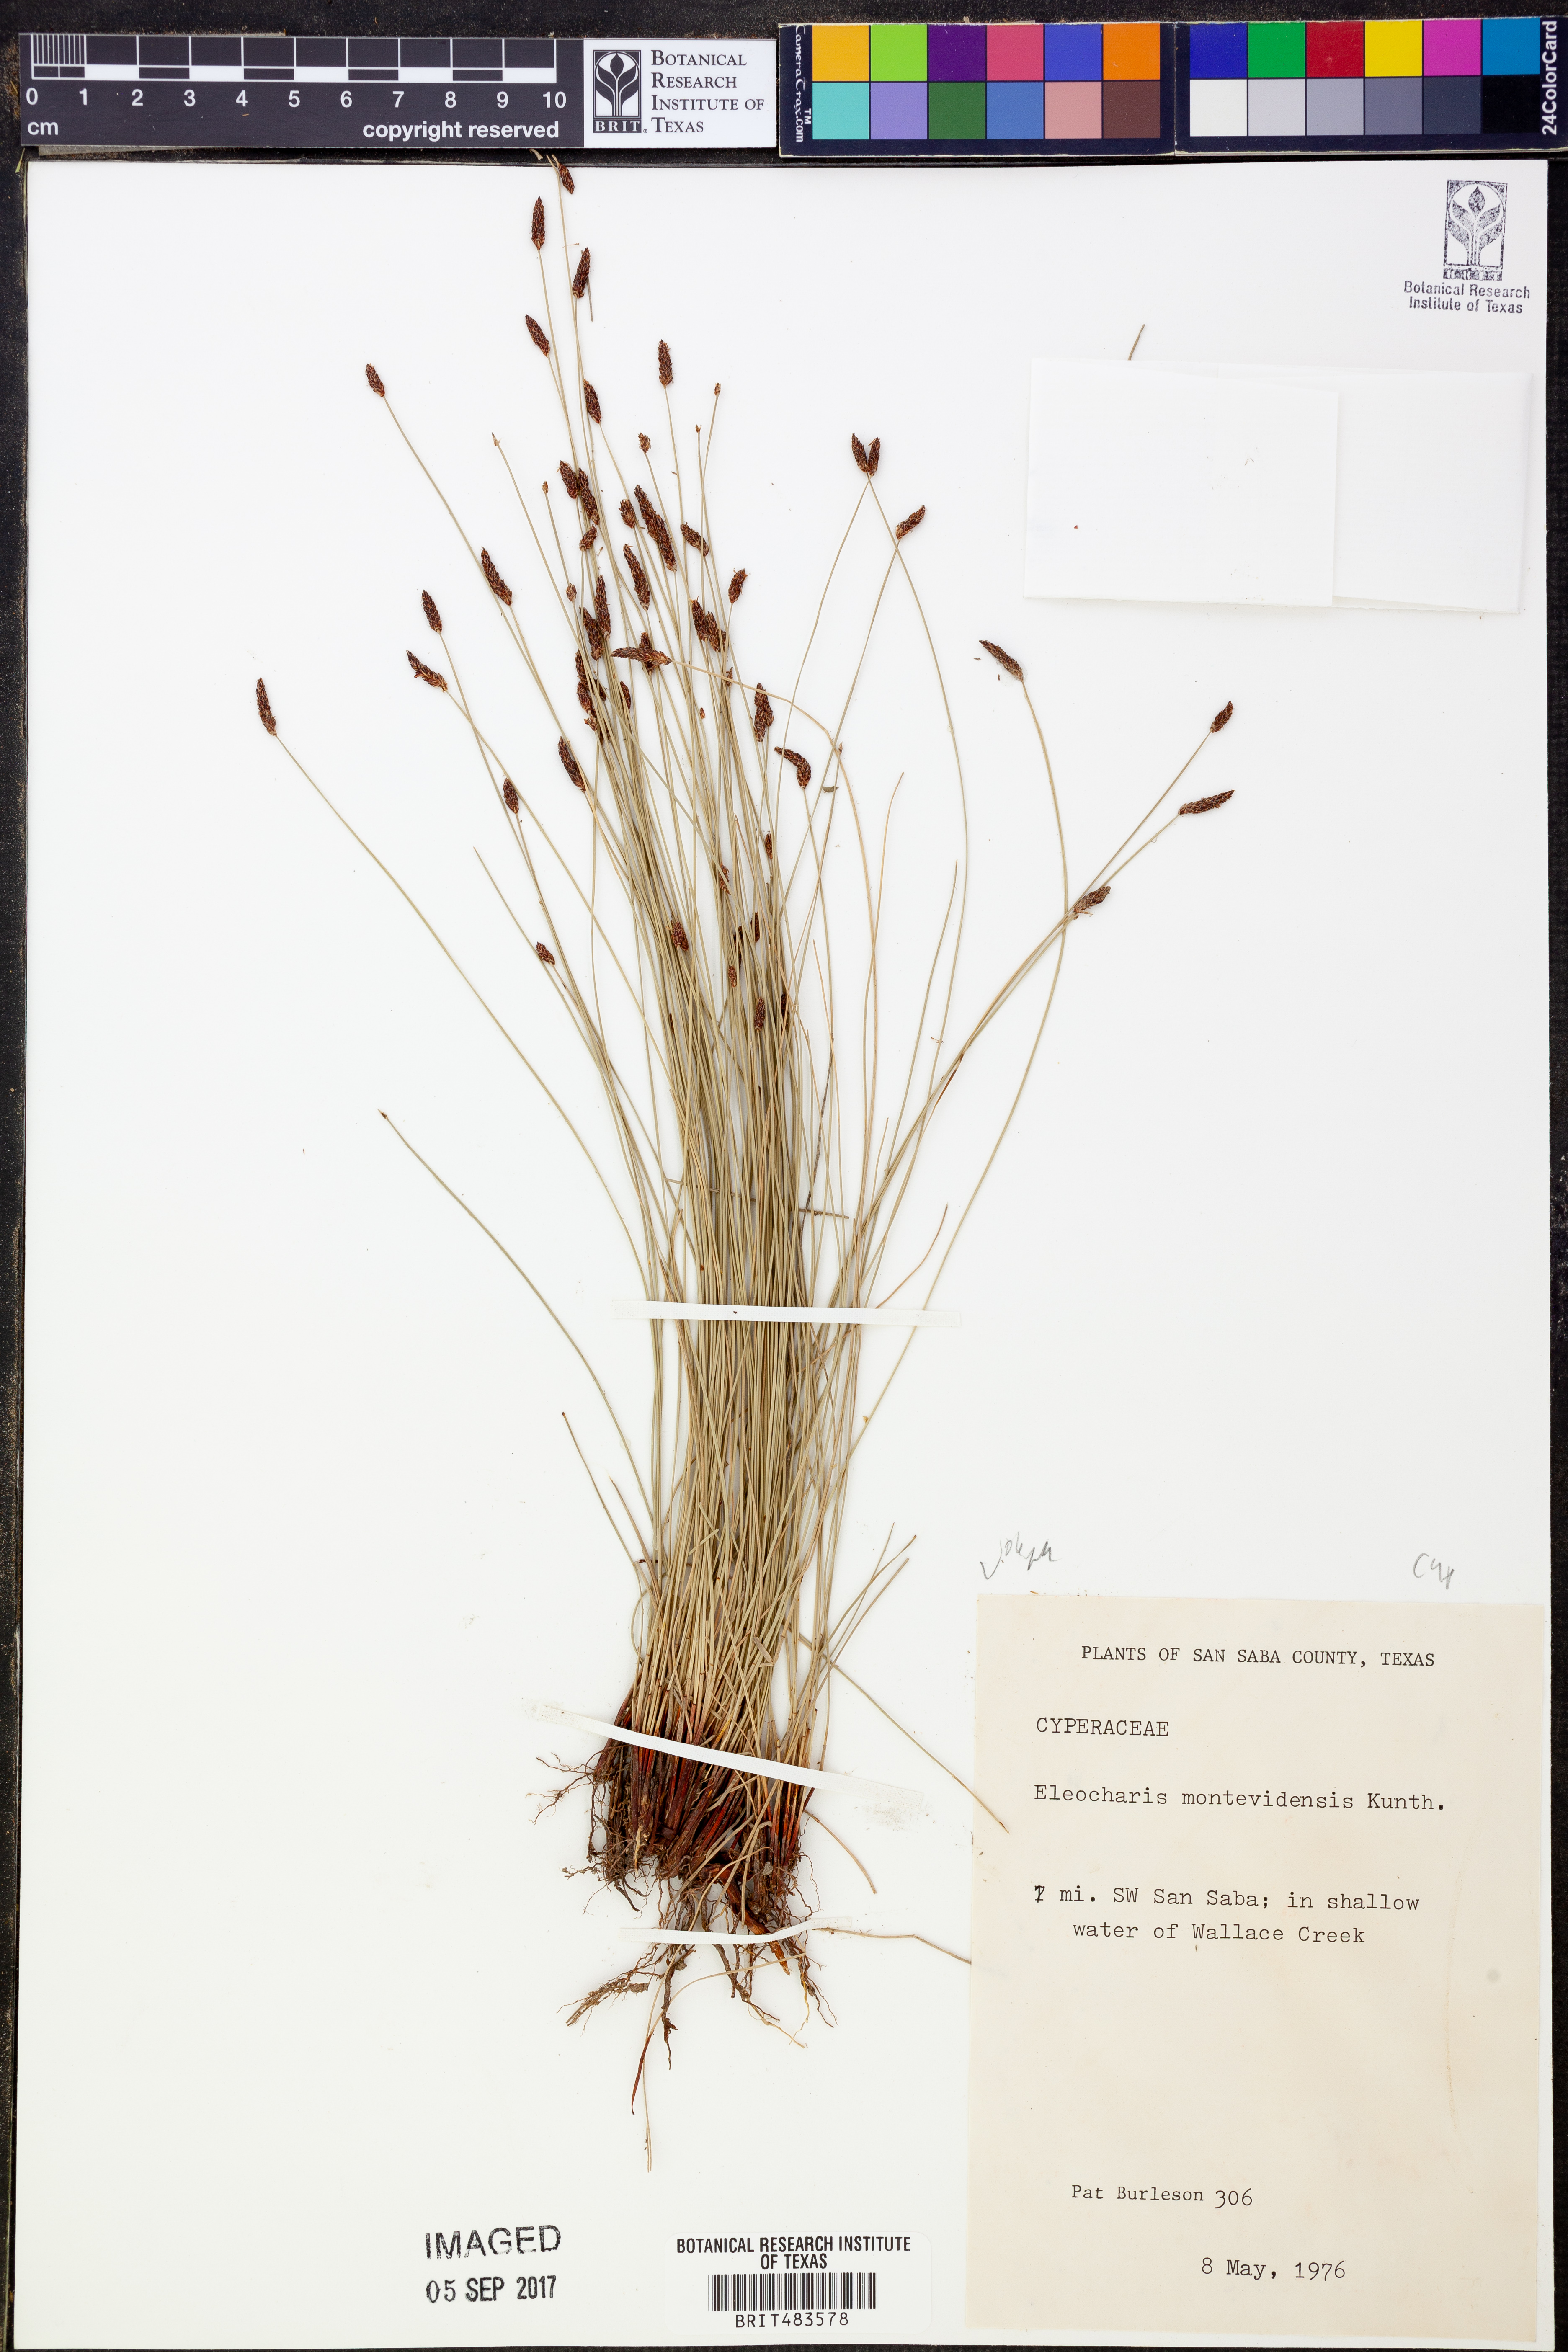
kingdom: Plantae
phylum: Tracheophyta
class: Liliopsida
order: Poales
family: Cyperaceae
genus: Eleocharis
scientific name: Eleocharis montevidensis
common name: Sand spike-rush
